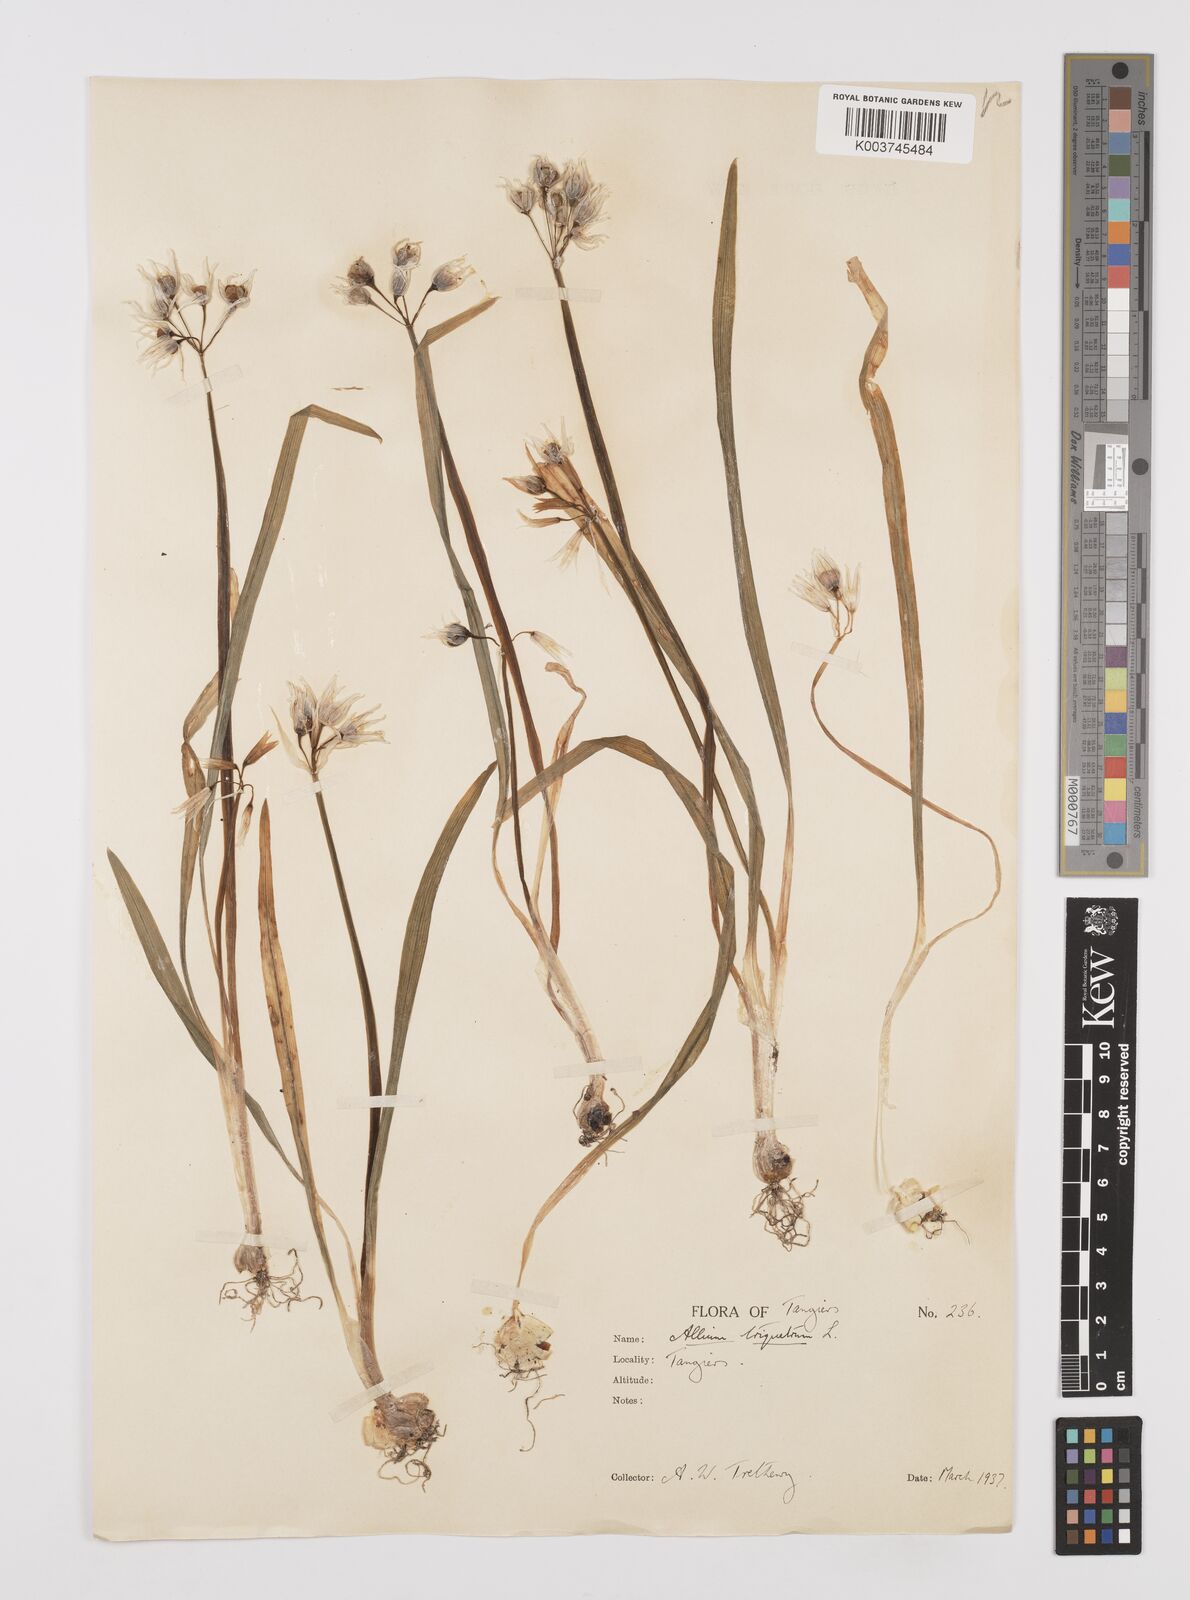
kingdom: Plantae
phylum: Tracheophyta
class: Liliopsida
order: Asparagales
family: Amaryllidaceae
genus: Allium
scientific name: Allium triquetrum
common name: Three-cornered garlic
